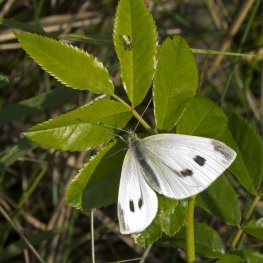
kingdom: Animalia
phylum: Arthropoda
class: Insecta
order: Lepidoptera
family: Pieridae
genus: Pieris
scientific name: Pieris rapae
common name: Cabbage White
